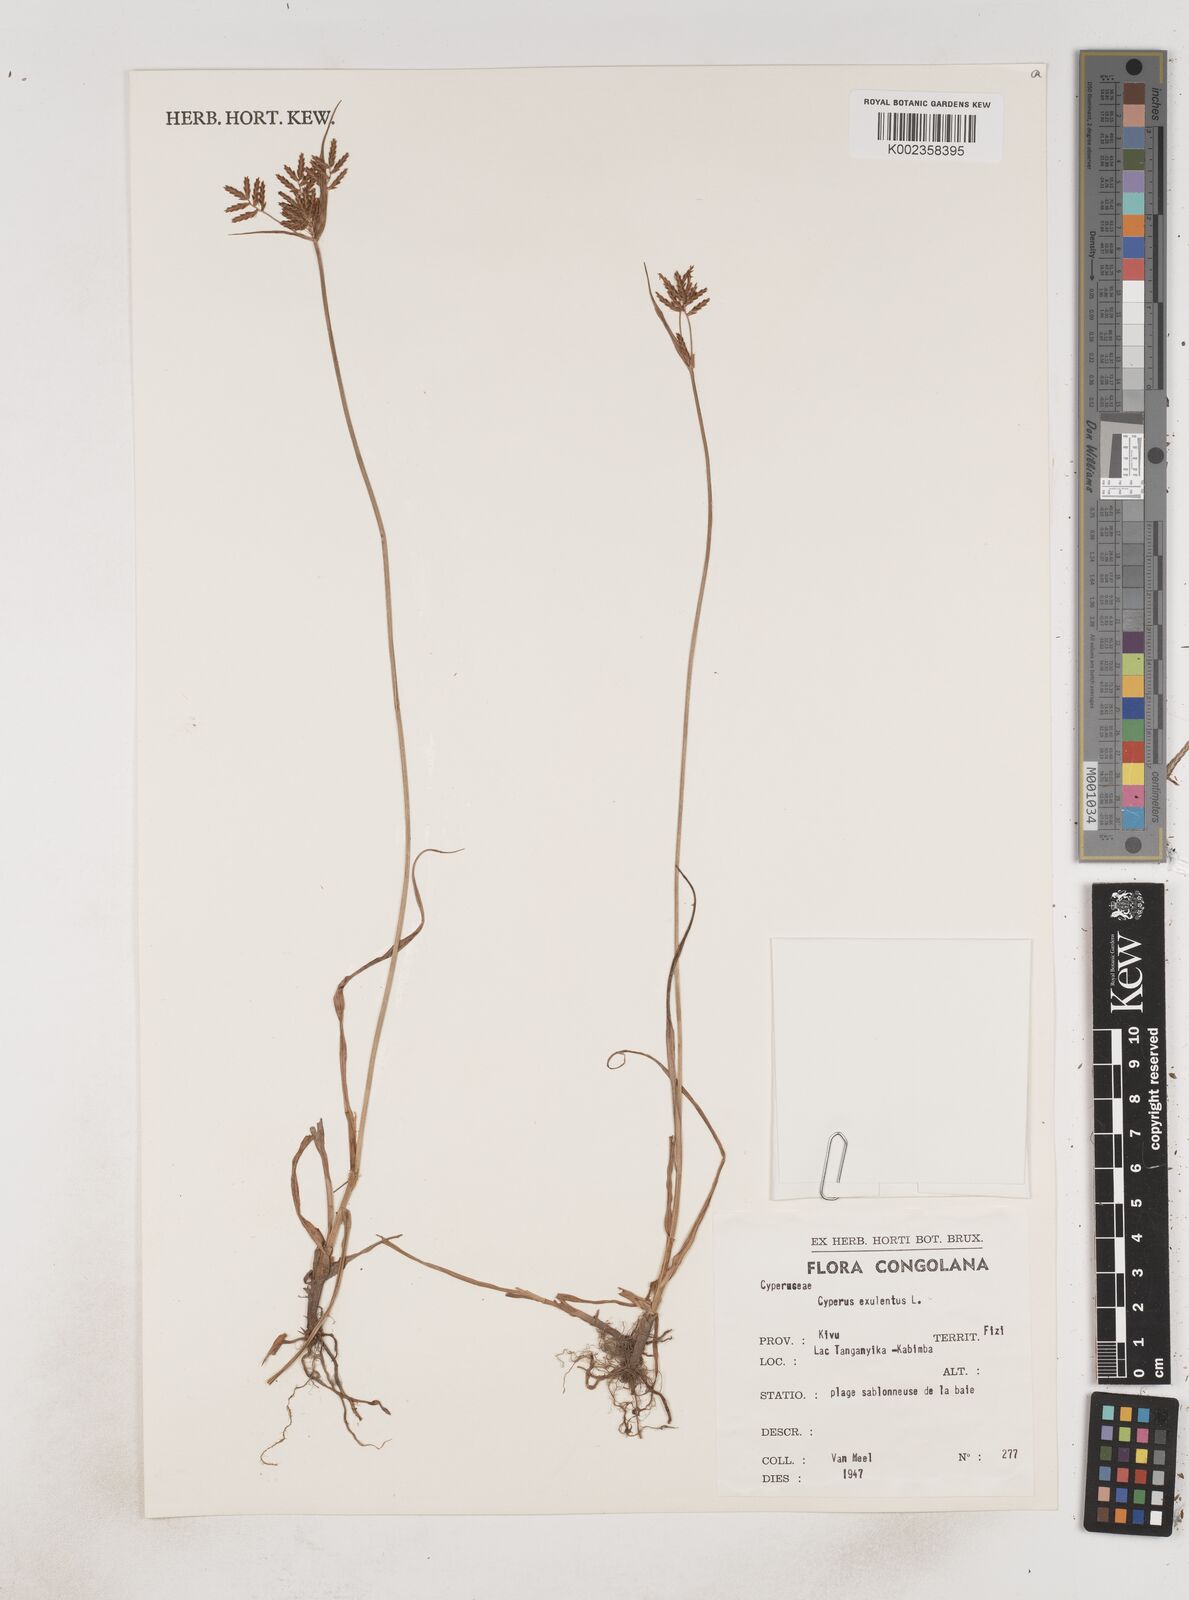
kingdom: Plantae
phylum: Tracheophyta
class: Liliopsida
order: Poales
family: Cyperaceae
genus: Cyperus
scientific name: Cyperus esculentus
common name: Yellow nutsedge
